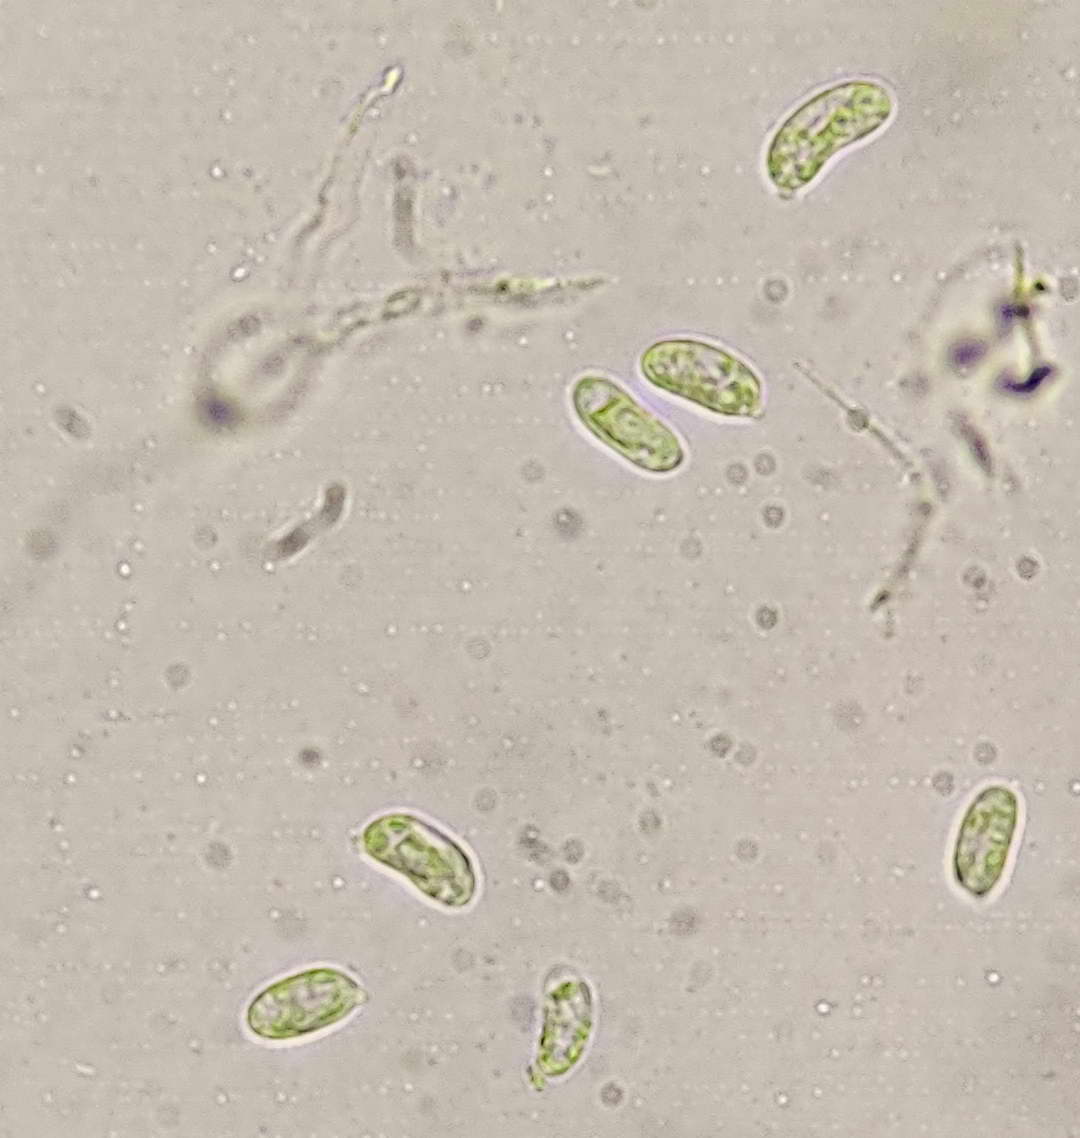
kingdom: Fungi
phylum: Basidiomycota
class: Agaricomycetes
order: Auriculariales
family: Hyaloriaceae
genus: Myxarium
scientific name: Myxarium hyalinum
